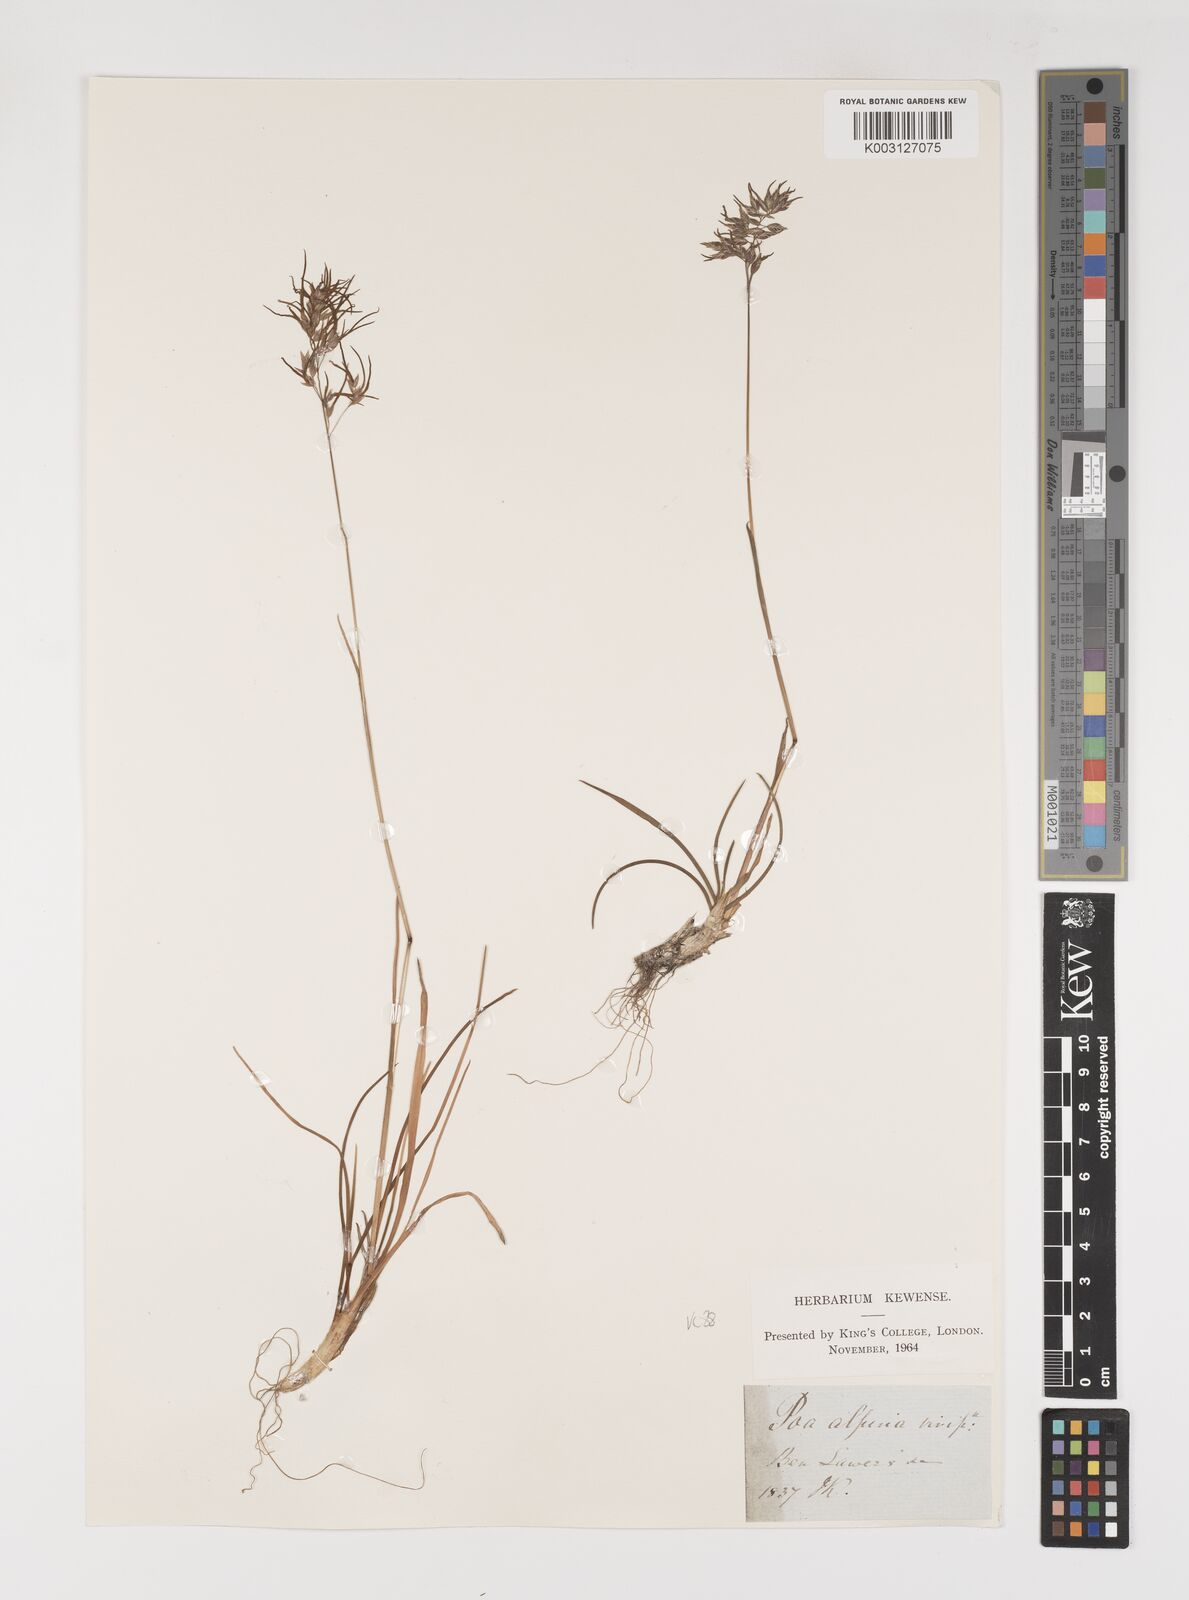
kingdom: Plantae
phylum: Tracheophyta
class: Liliopsida
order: Poales
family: Poaceae
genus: Poa
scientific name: Poa alpina
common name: Alpine bluegrass
